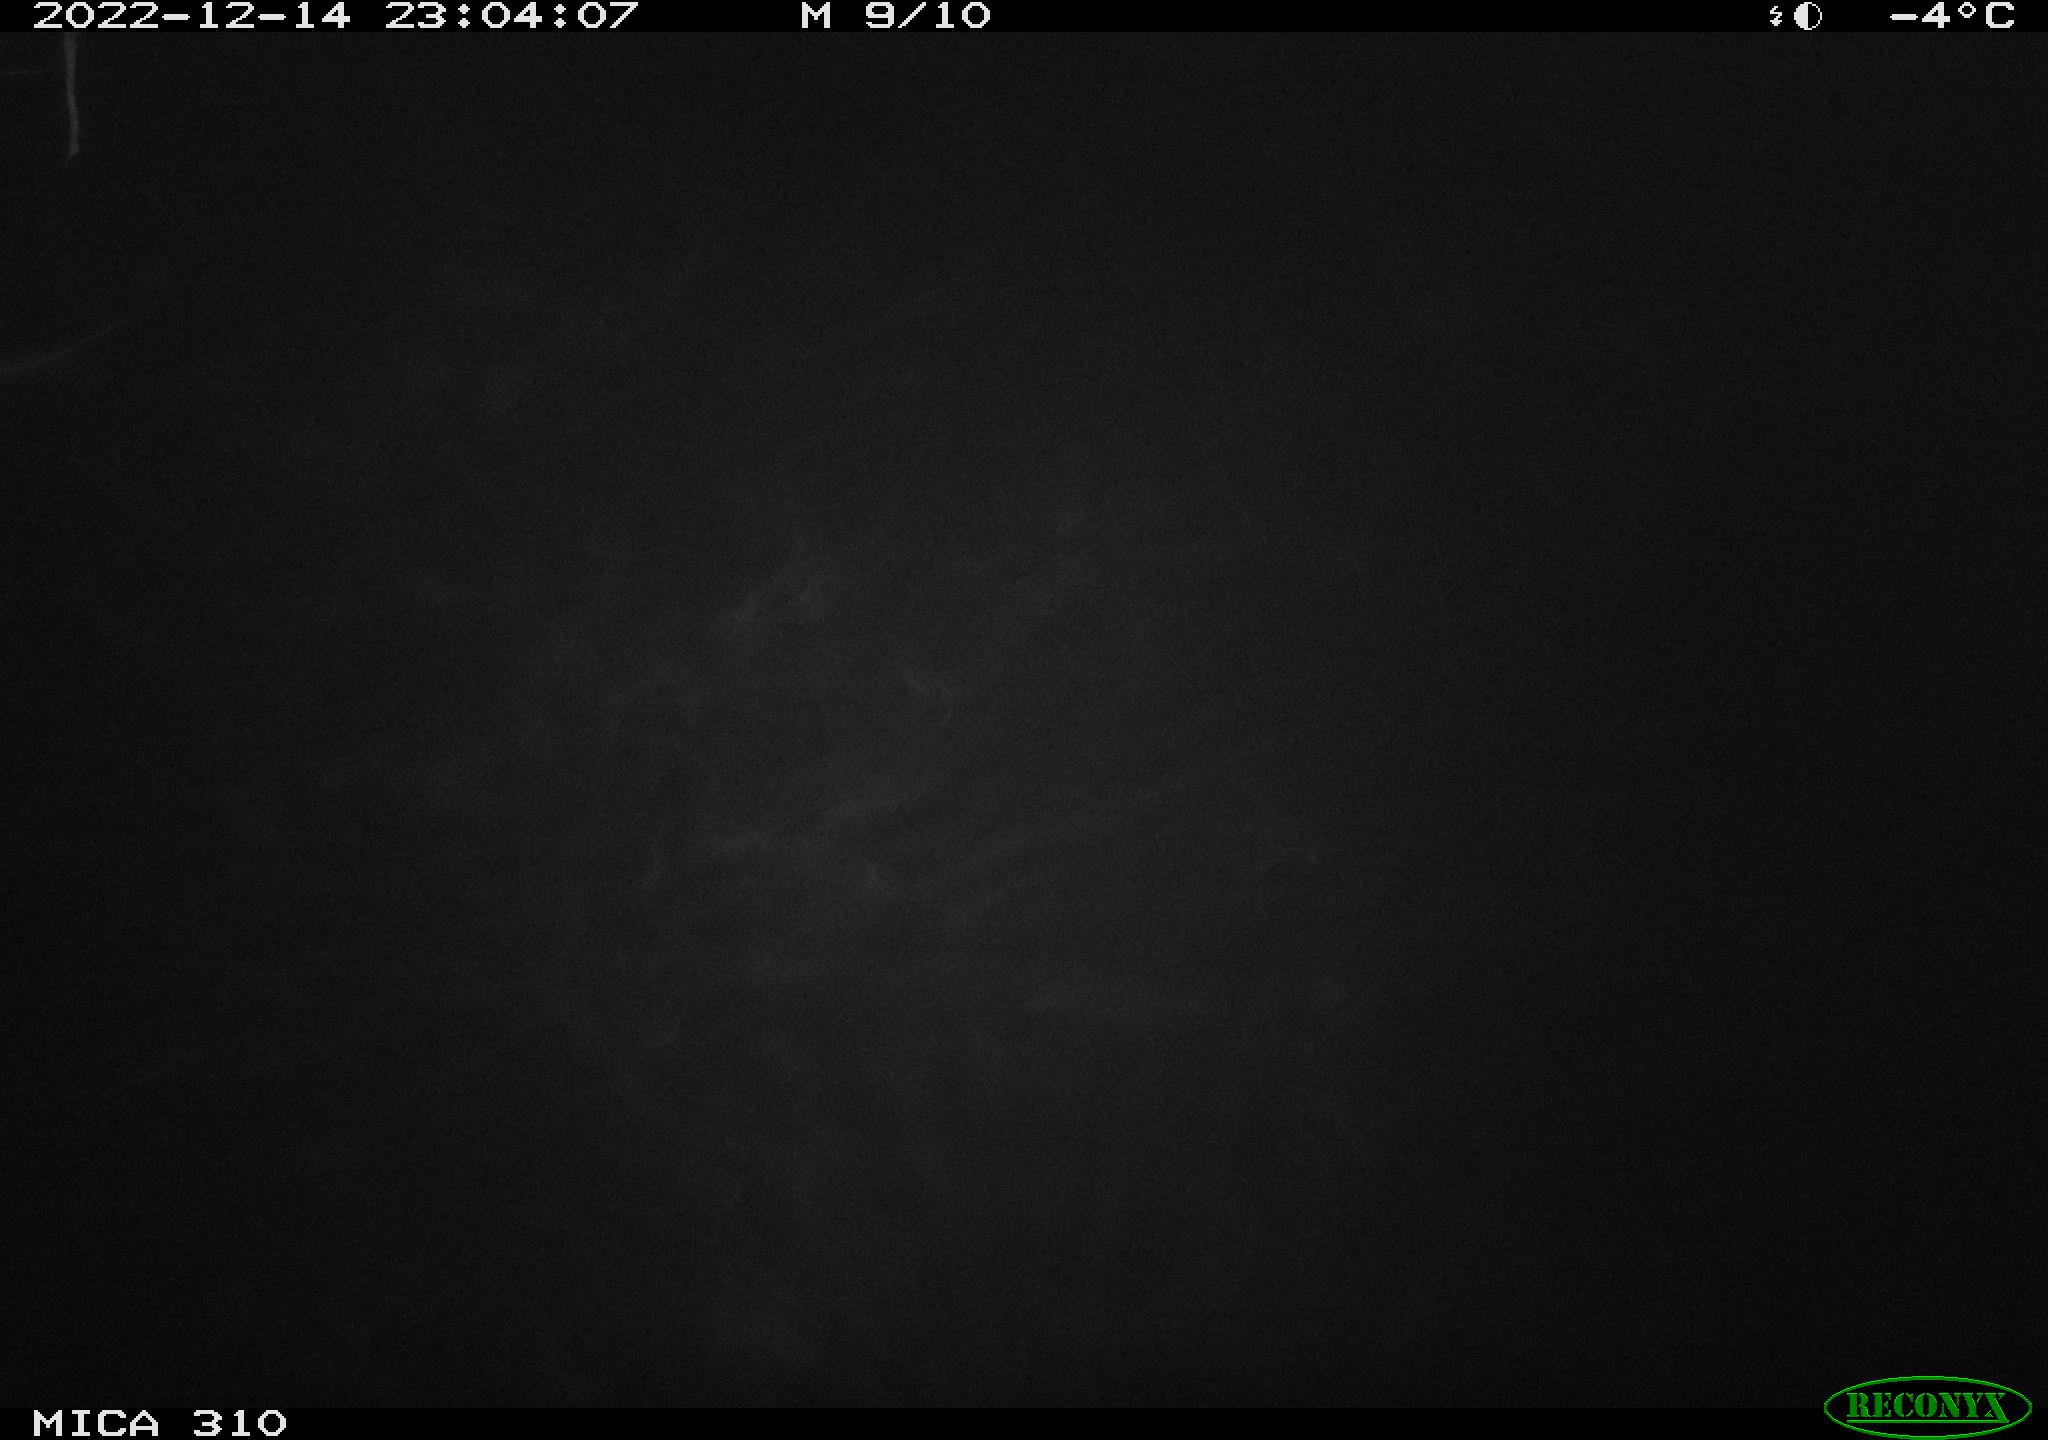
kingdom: Animalia
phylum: Chordata
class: Mammalia
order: Rodentia
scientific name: Rodentia
